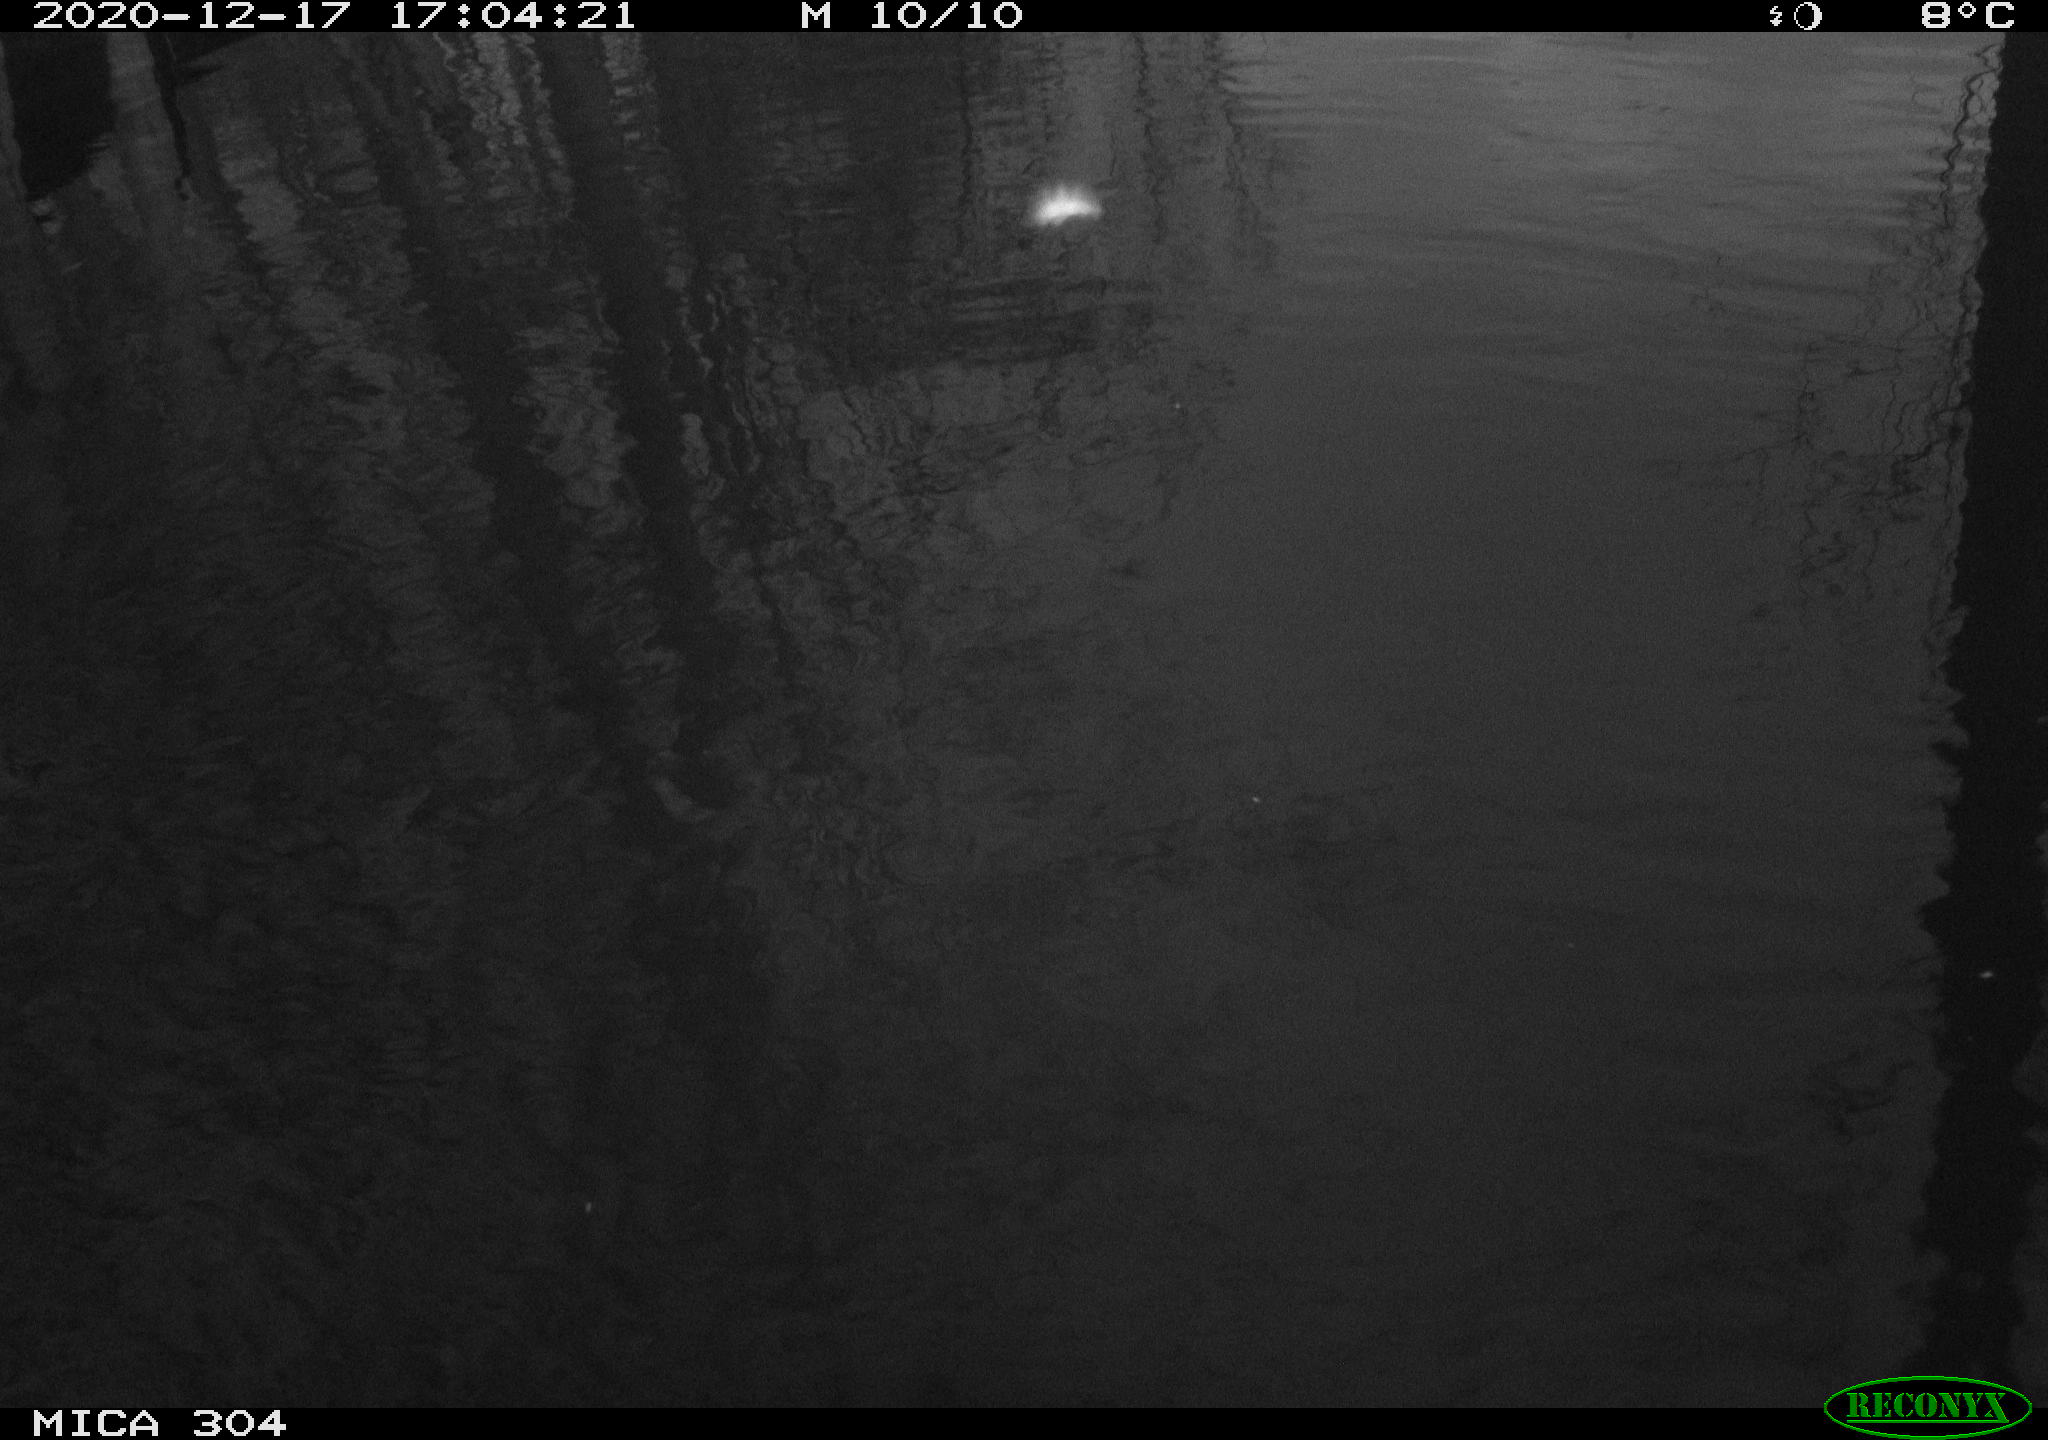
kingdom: Animalia
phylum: Chordata
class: Aves
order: Gruiformes
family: Rallidae
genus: Gallinula
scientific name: Gallinula chloropus
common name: Common moorhen
